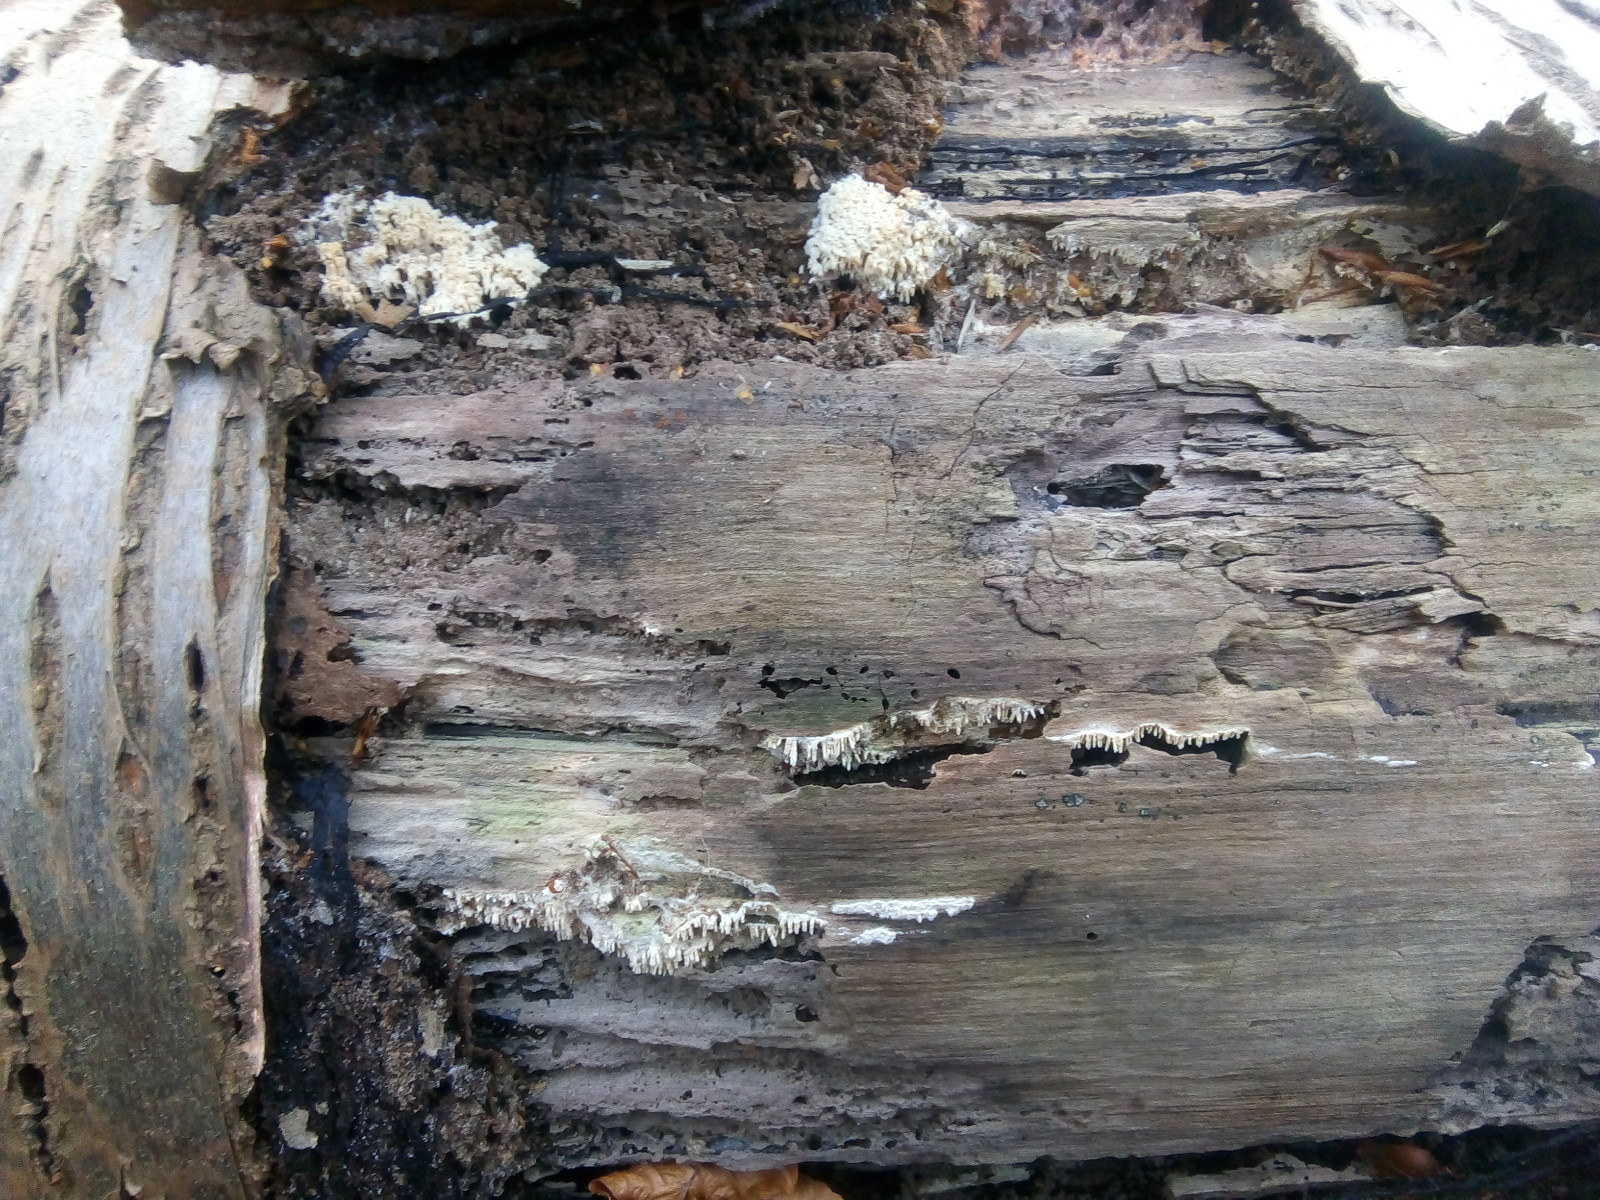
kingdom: Fungi
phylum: Basidiomycota
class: Agaricomycetes
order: Hymenochaetales
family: Schizoporaceae
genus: Xylodon
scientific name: Xylodon radula
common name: grovtandet kalkskind
